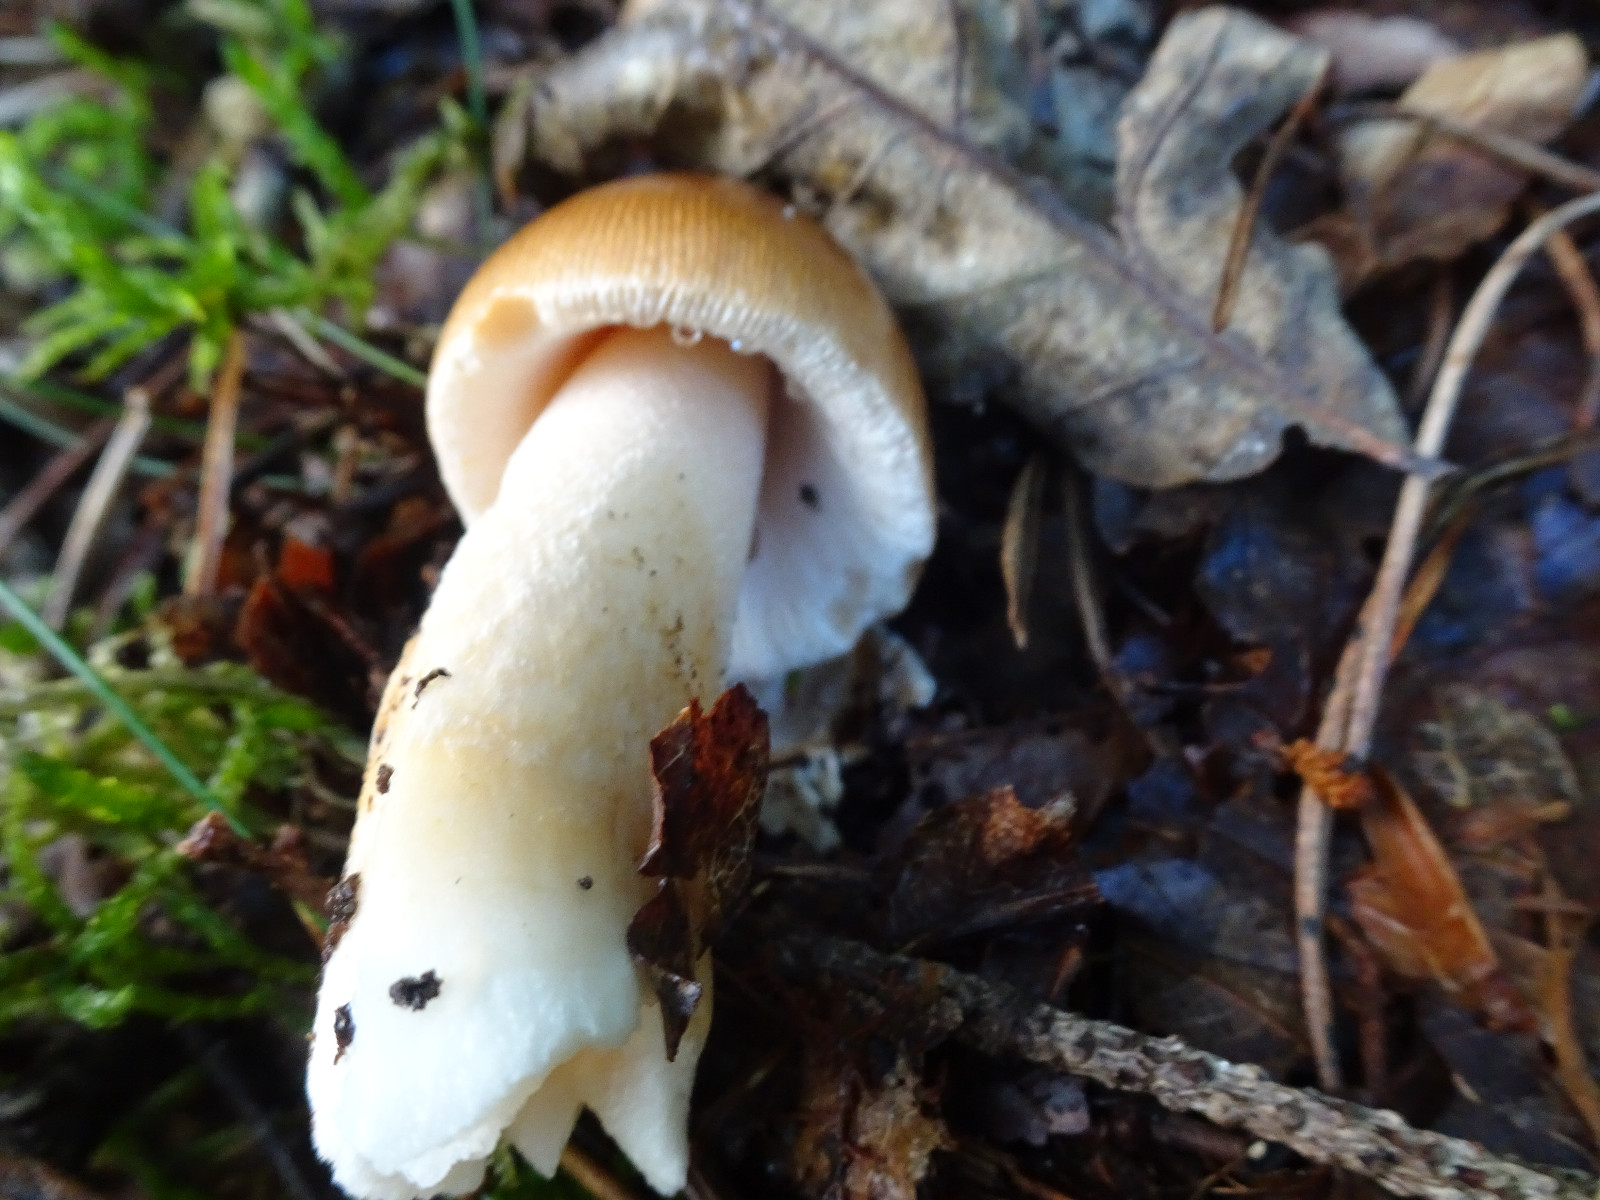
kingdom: Fungi
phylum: Basidiomycota
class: Agaricomycetes
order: Agaricales
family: Amanitaceae
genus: Amanita
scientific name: Amanita fulva
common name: brun kam-fluesvamp
